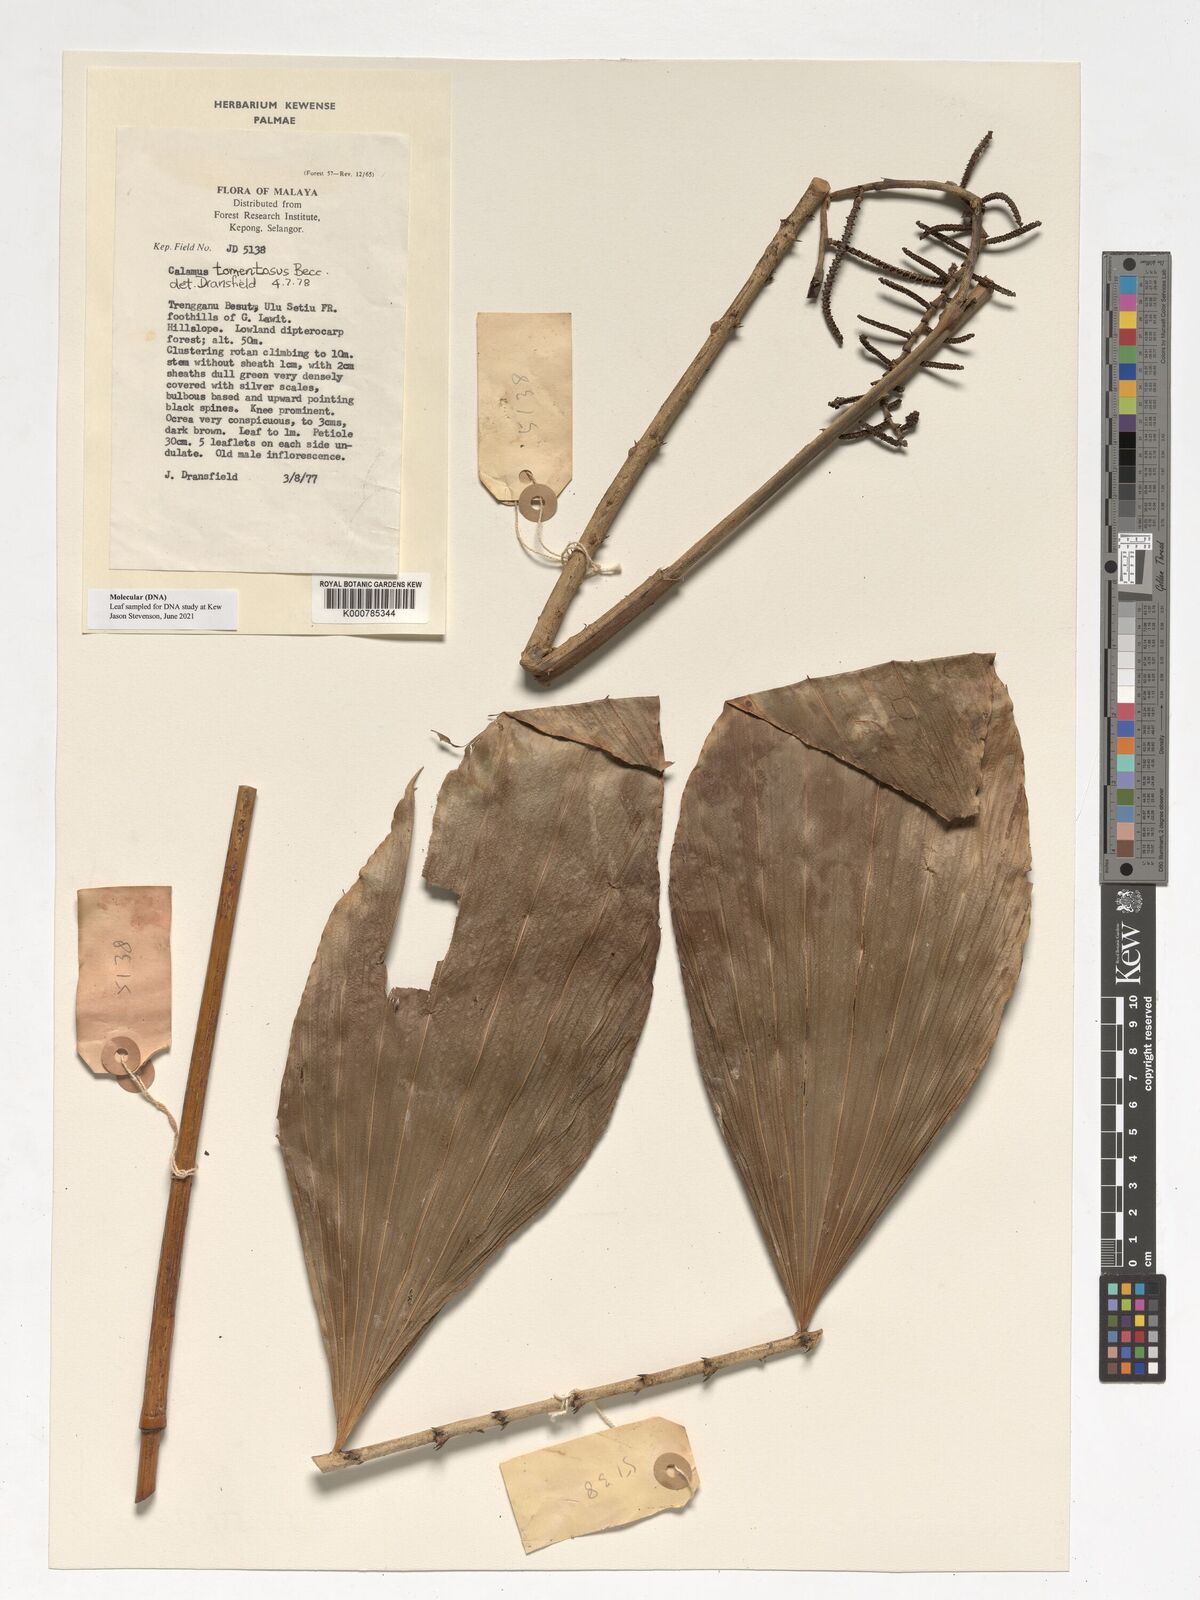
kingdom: Plantae
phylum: Tracheophyta
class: Liliopsida
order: Arecales
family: Arecaceae
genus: Calamus
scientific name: Calamus rhomboideus
